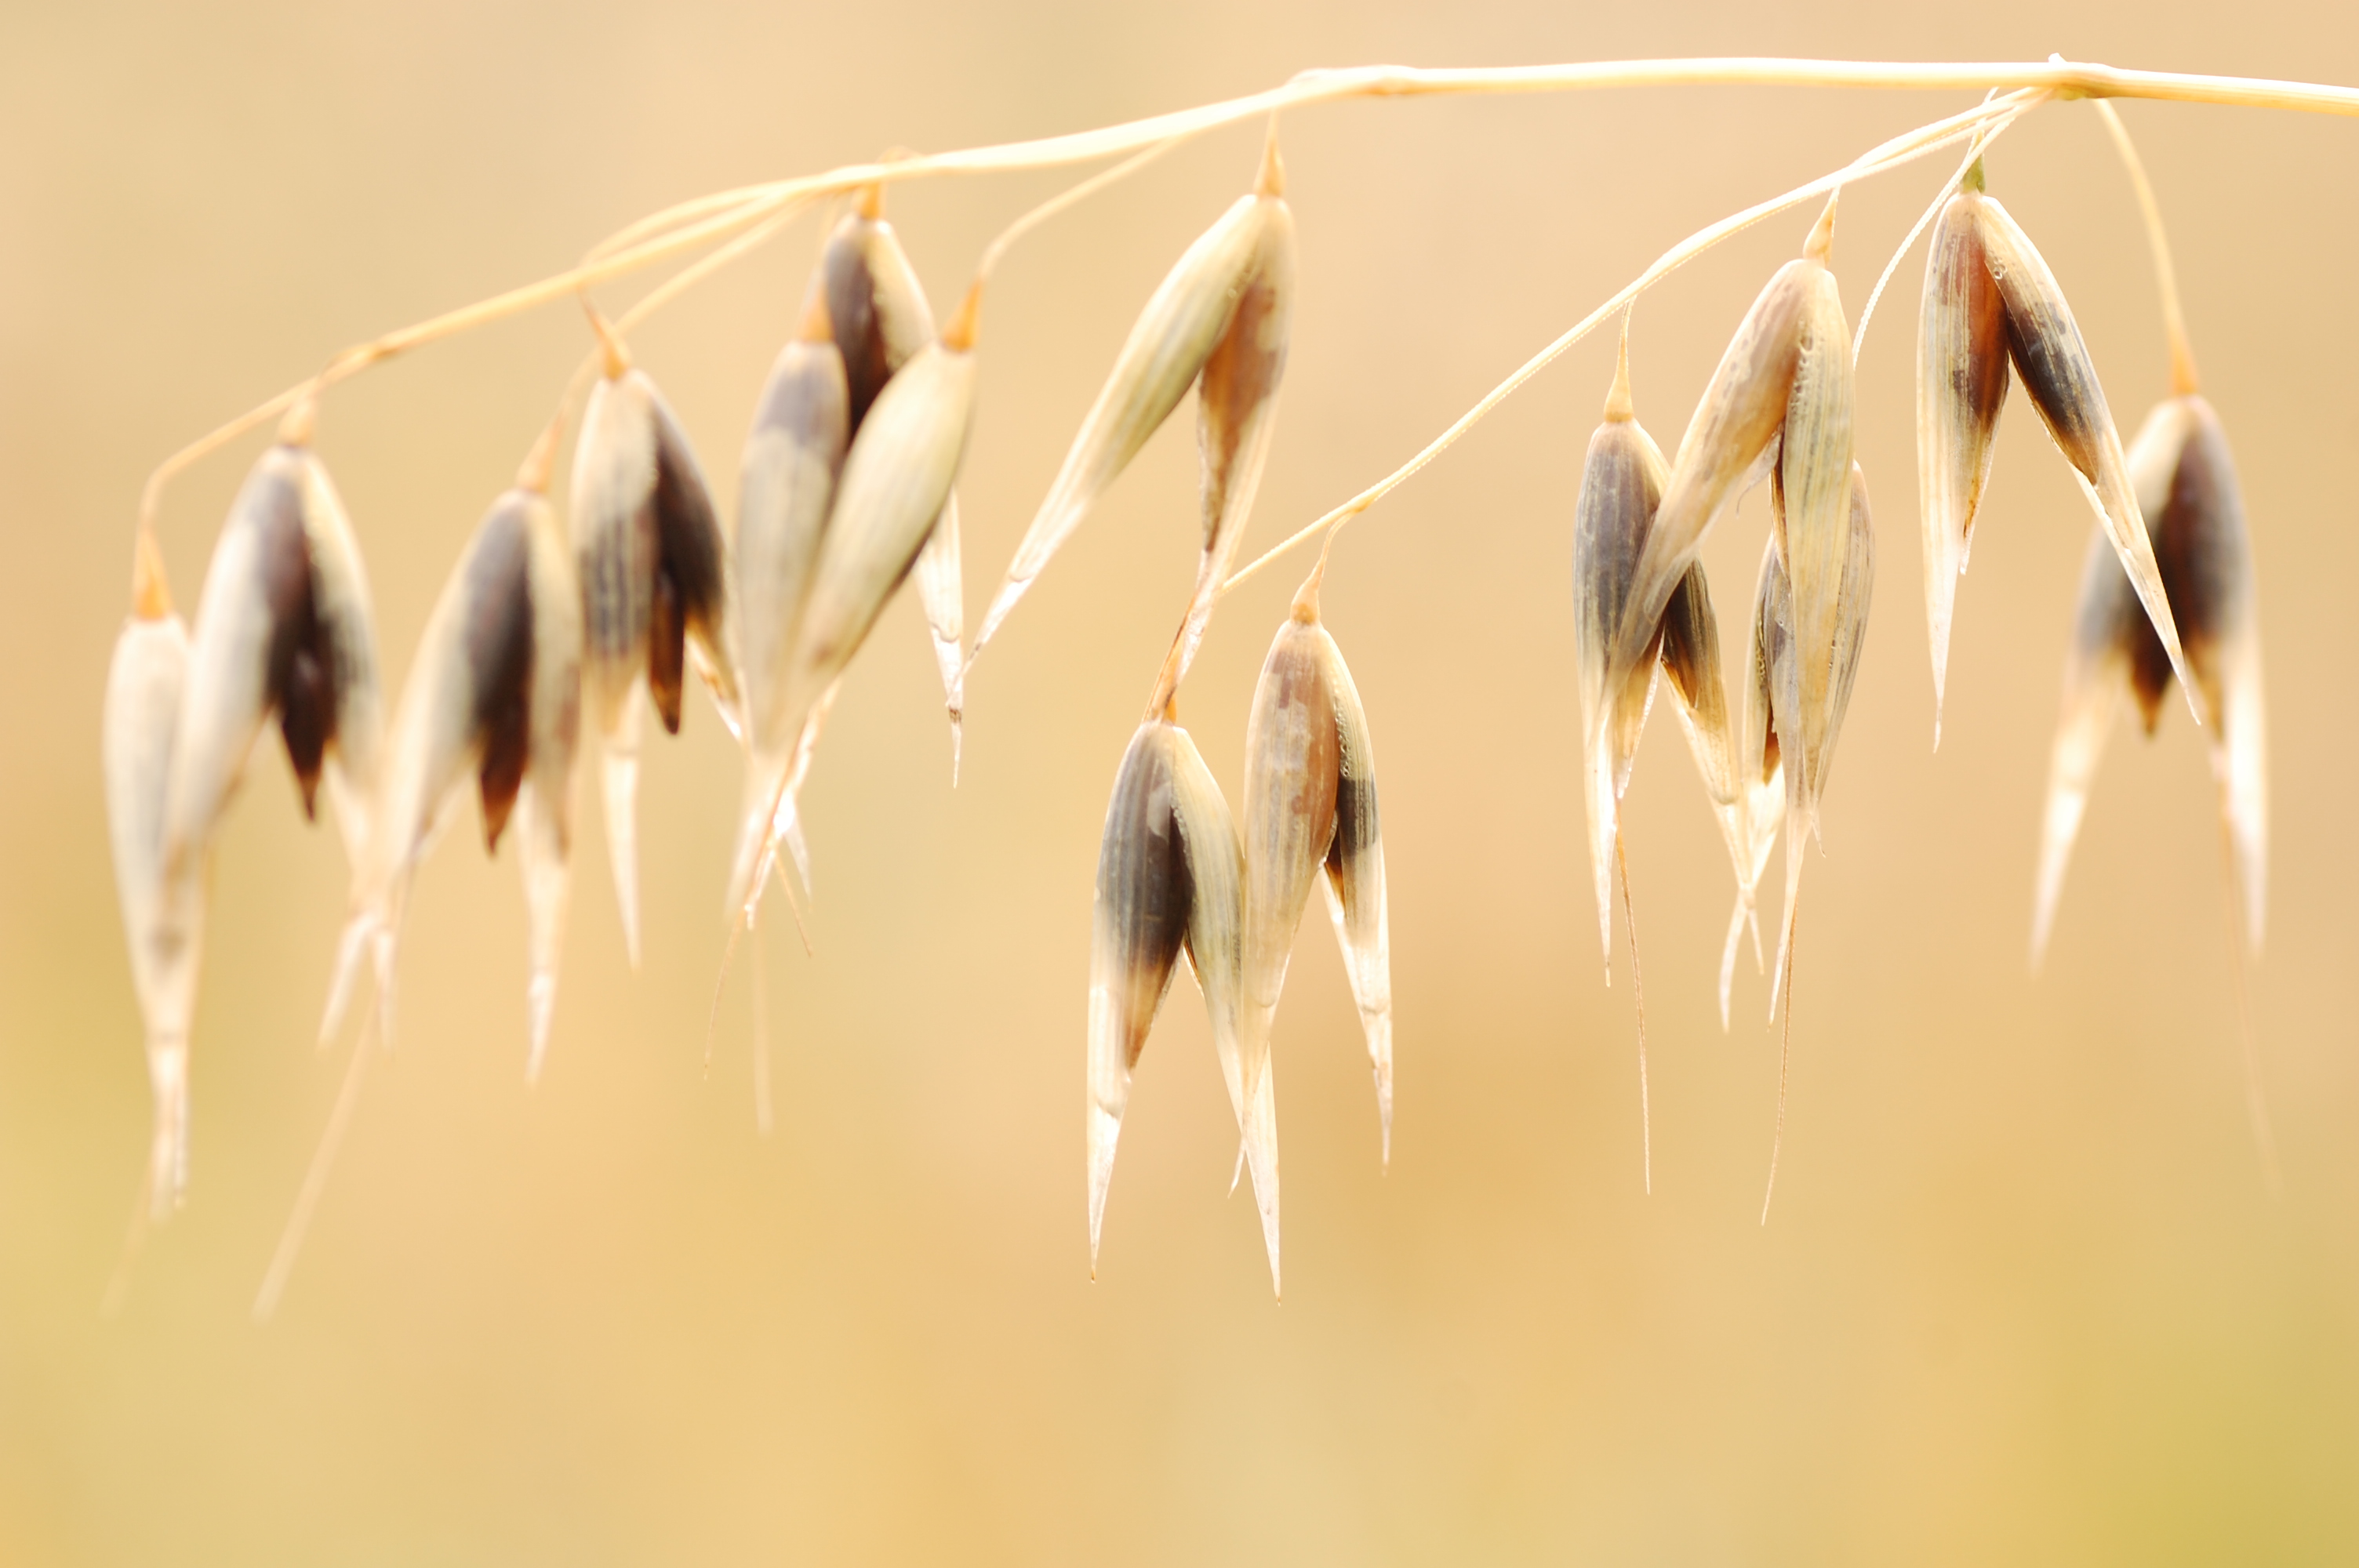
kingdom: Plantae
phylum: Tracheophyta
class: Liliopsida
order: Poales
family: Poaceae
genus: Avena
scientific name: Avena sativa
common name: Oat
